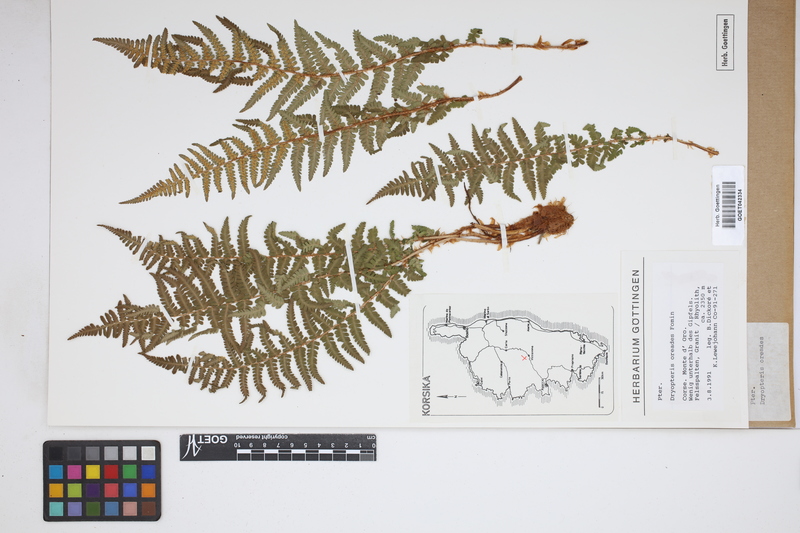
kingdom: Plantae
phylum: Tracheophyta
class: Polypodiopsida
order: Polypodiales
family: Dryopteridaceae
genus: Dryopteris
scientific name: Dryopteris oreades
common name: Mountain male fern
